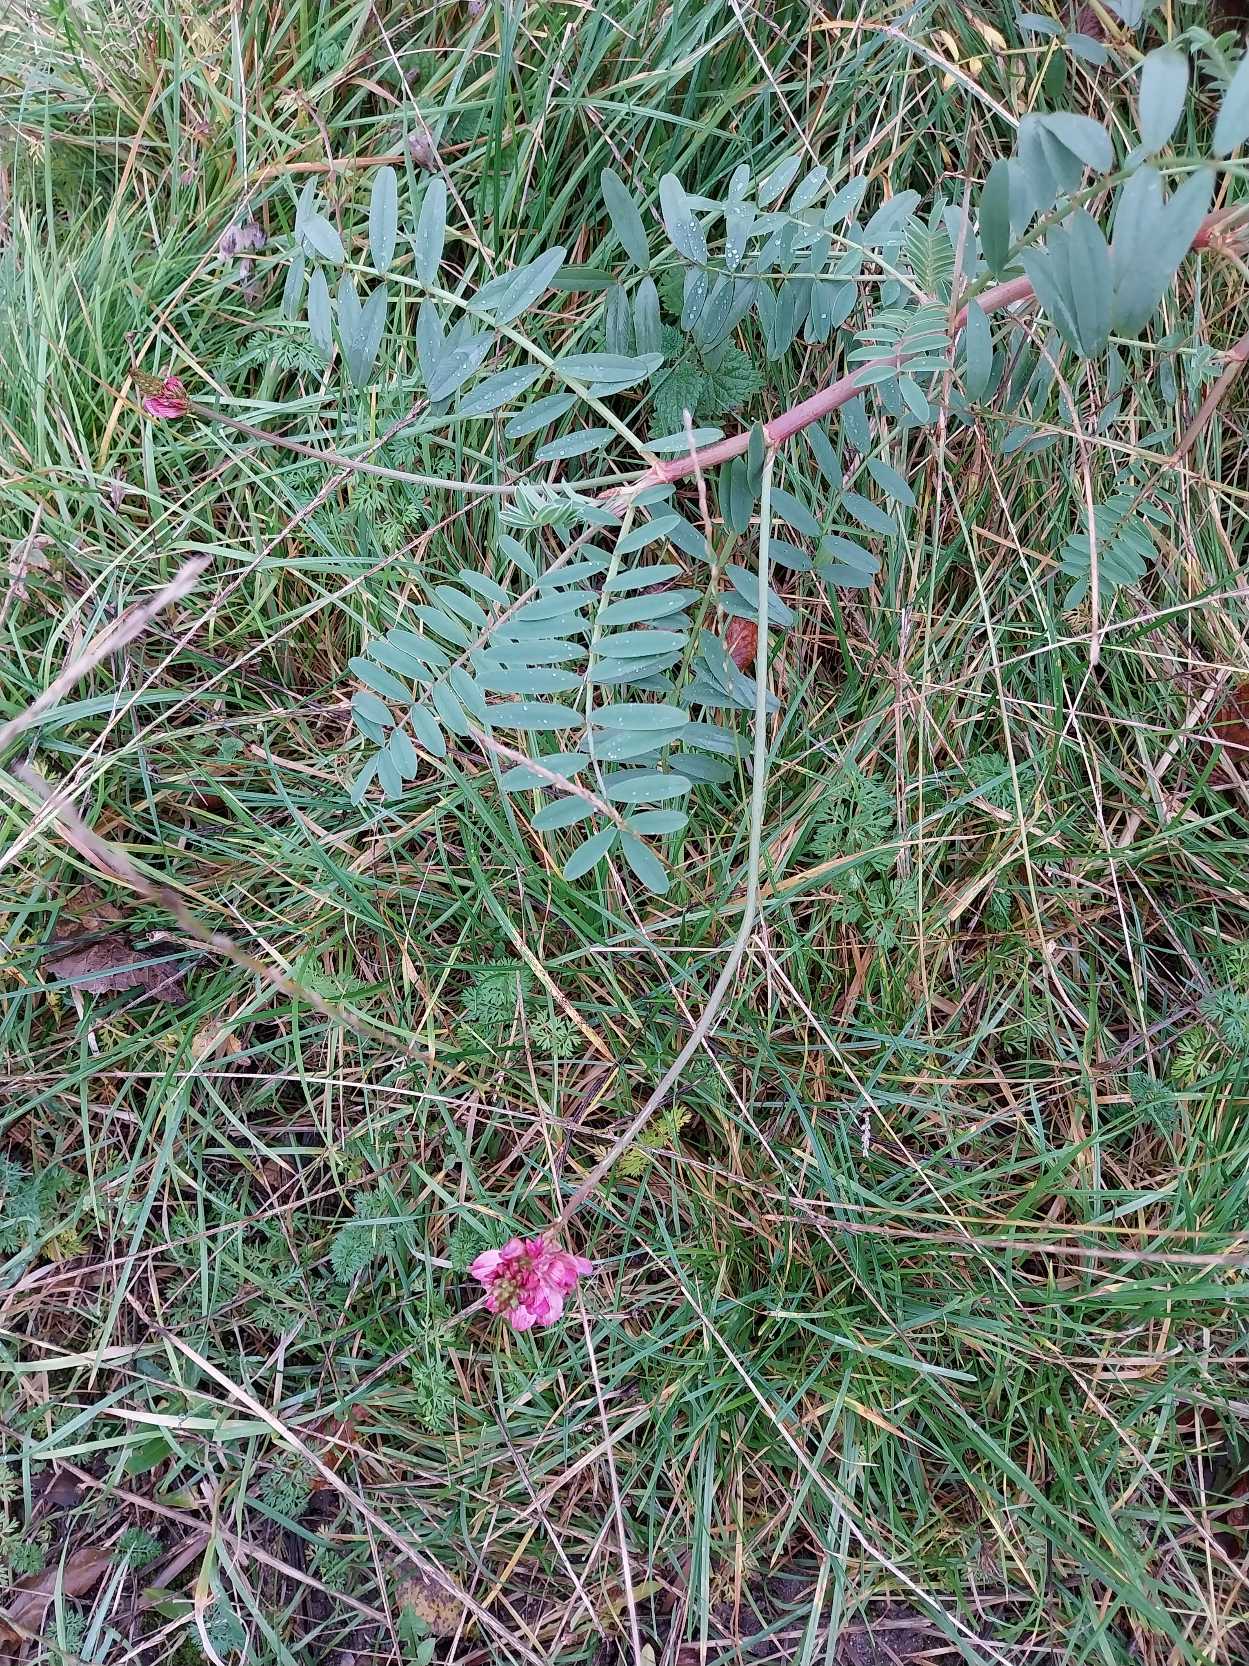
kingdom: Plantae
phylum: Tracheophyta
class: Magnoliopsida
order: Fabales
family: Fabaceae
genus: Onobrychis
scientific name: Onobrychis viciifolia
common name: Esparsette
